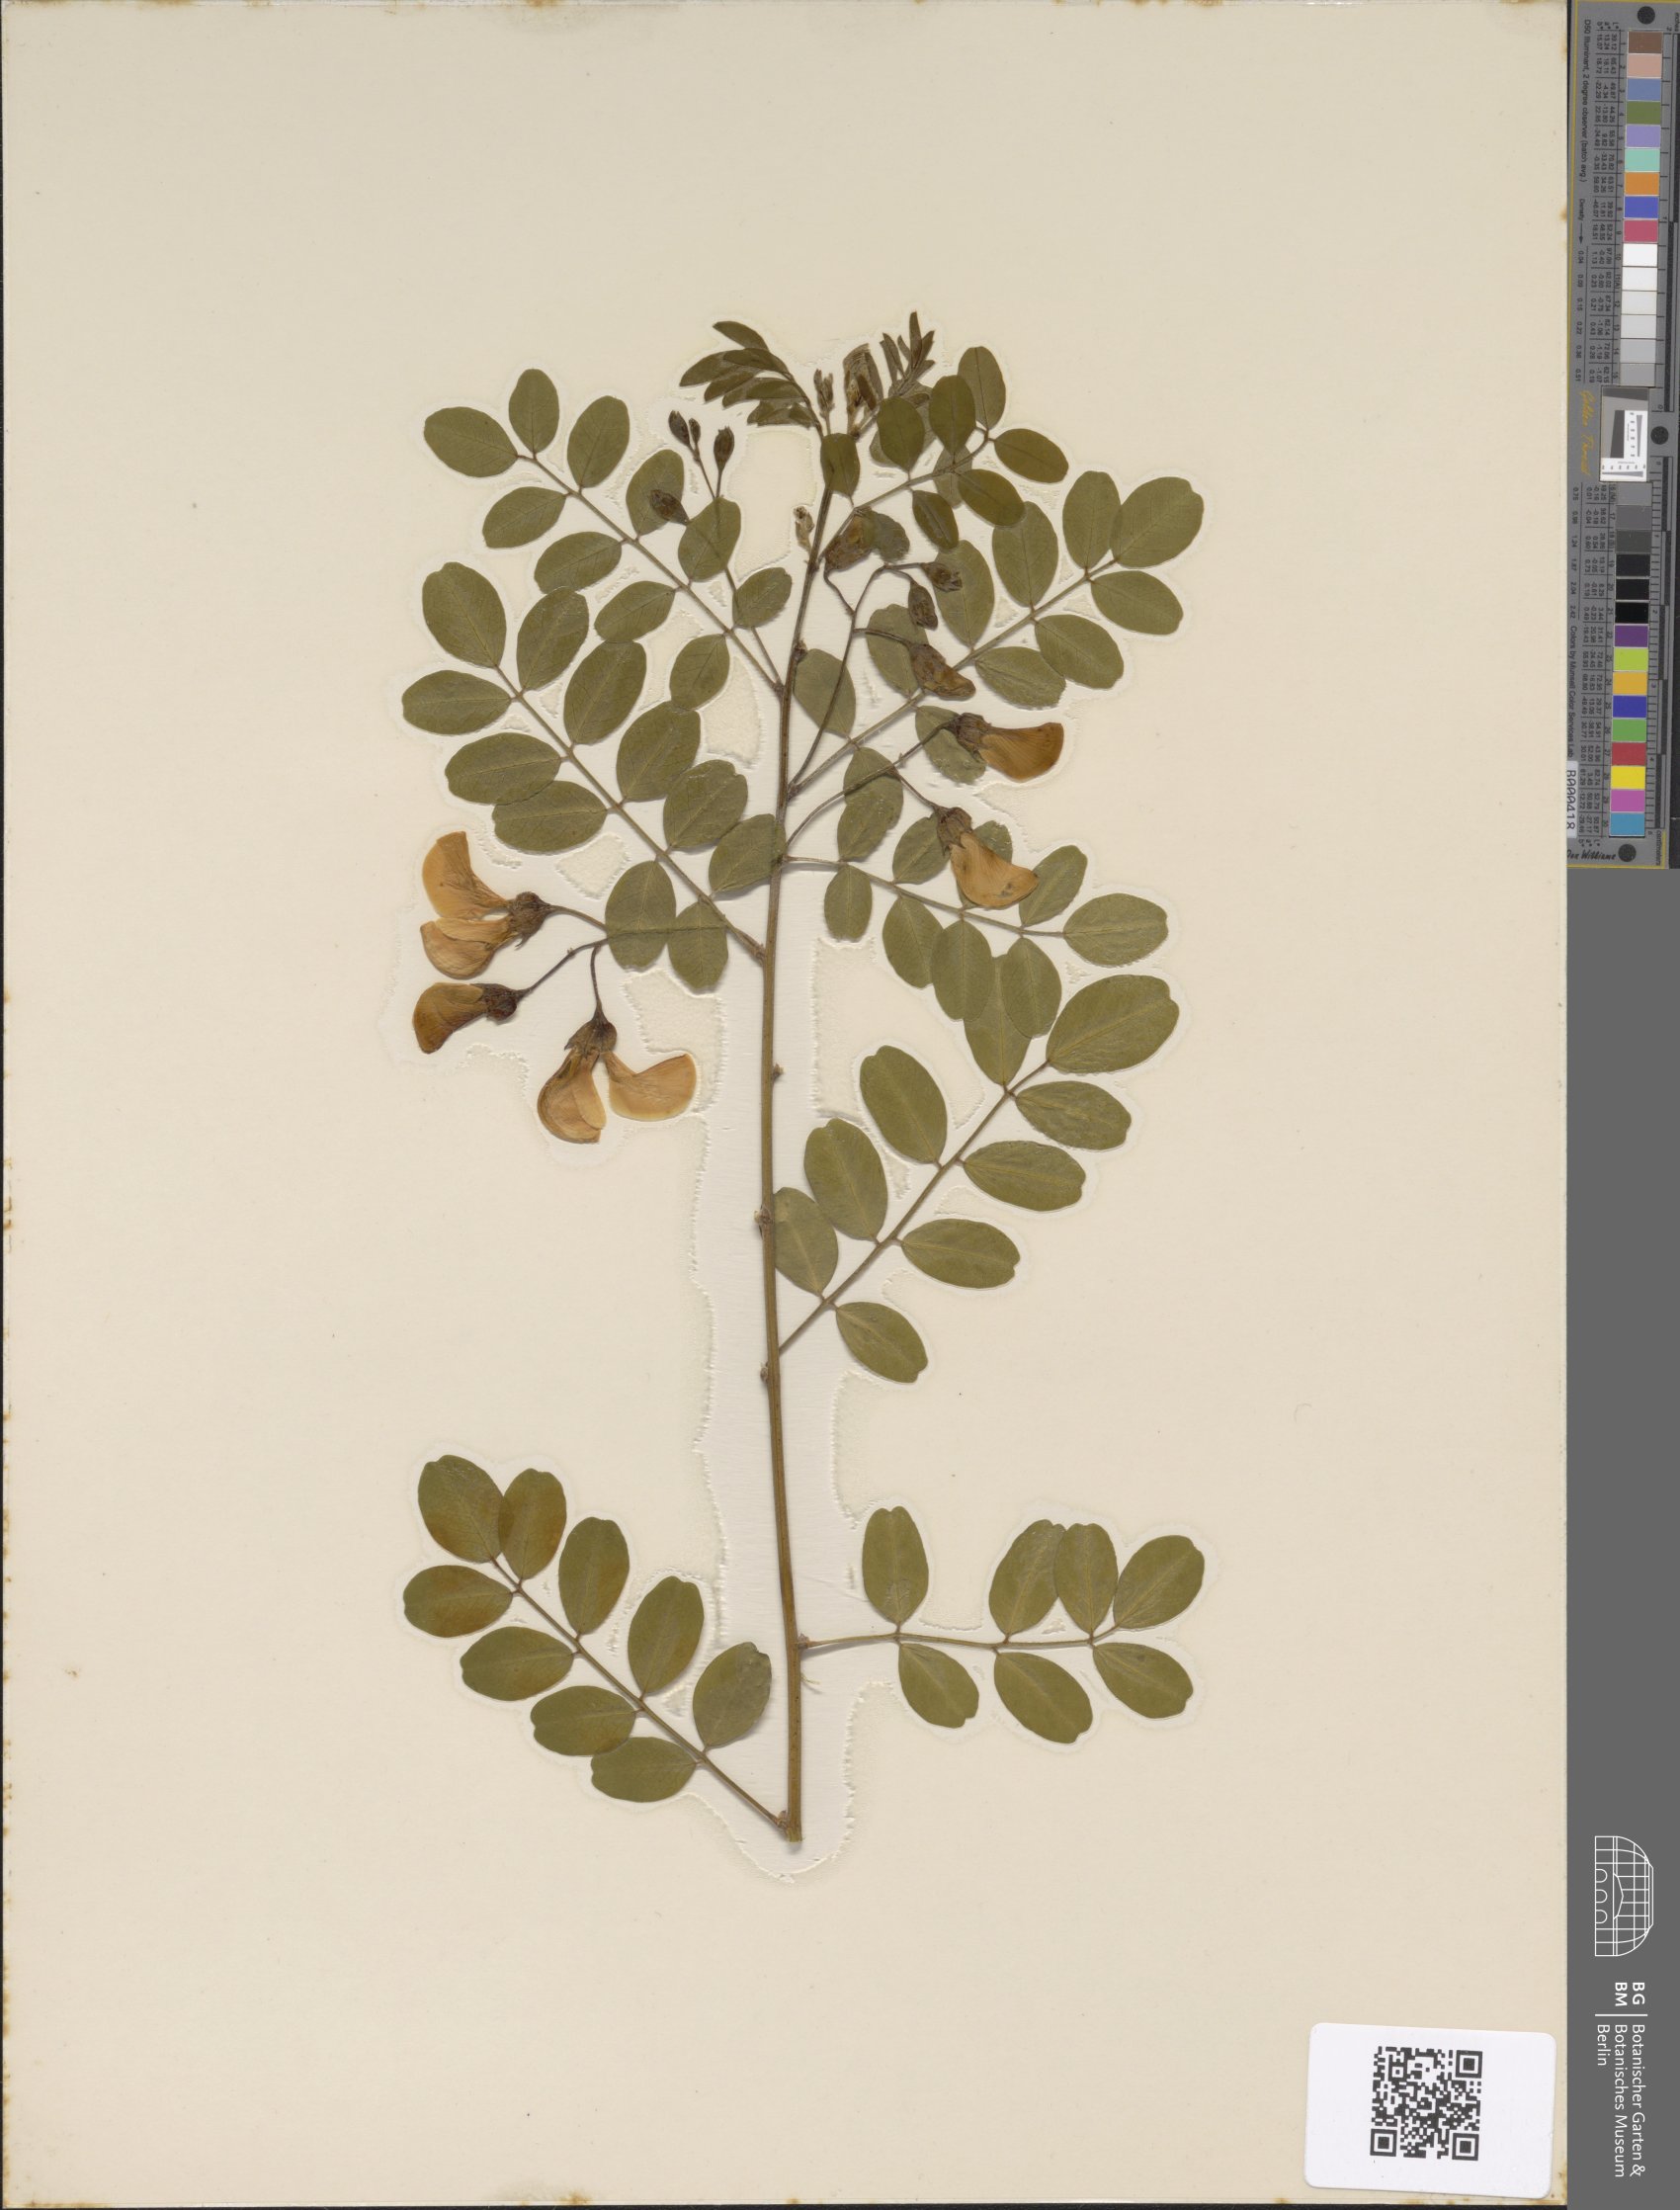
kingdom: Plantae
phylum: Tracheophyta
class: Magnoliopsida
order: Fabales
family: Fabaceae
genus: Colutea
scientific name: Colutea arborescens
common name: Bladder-senna
